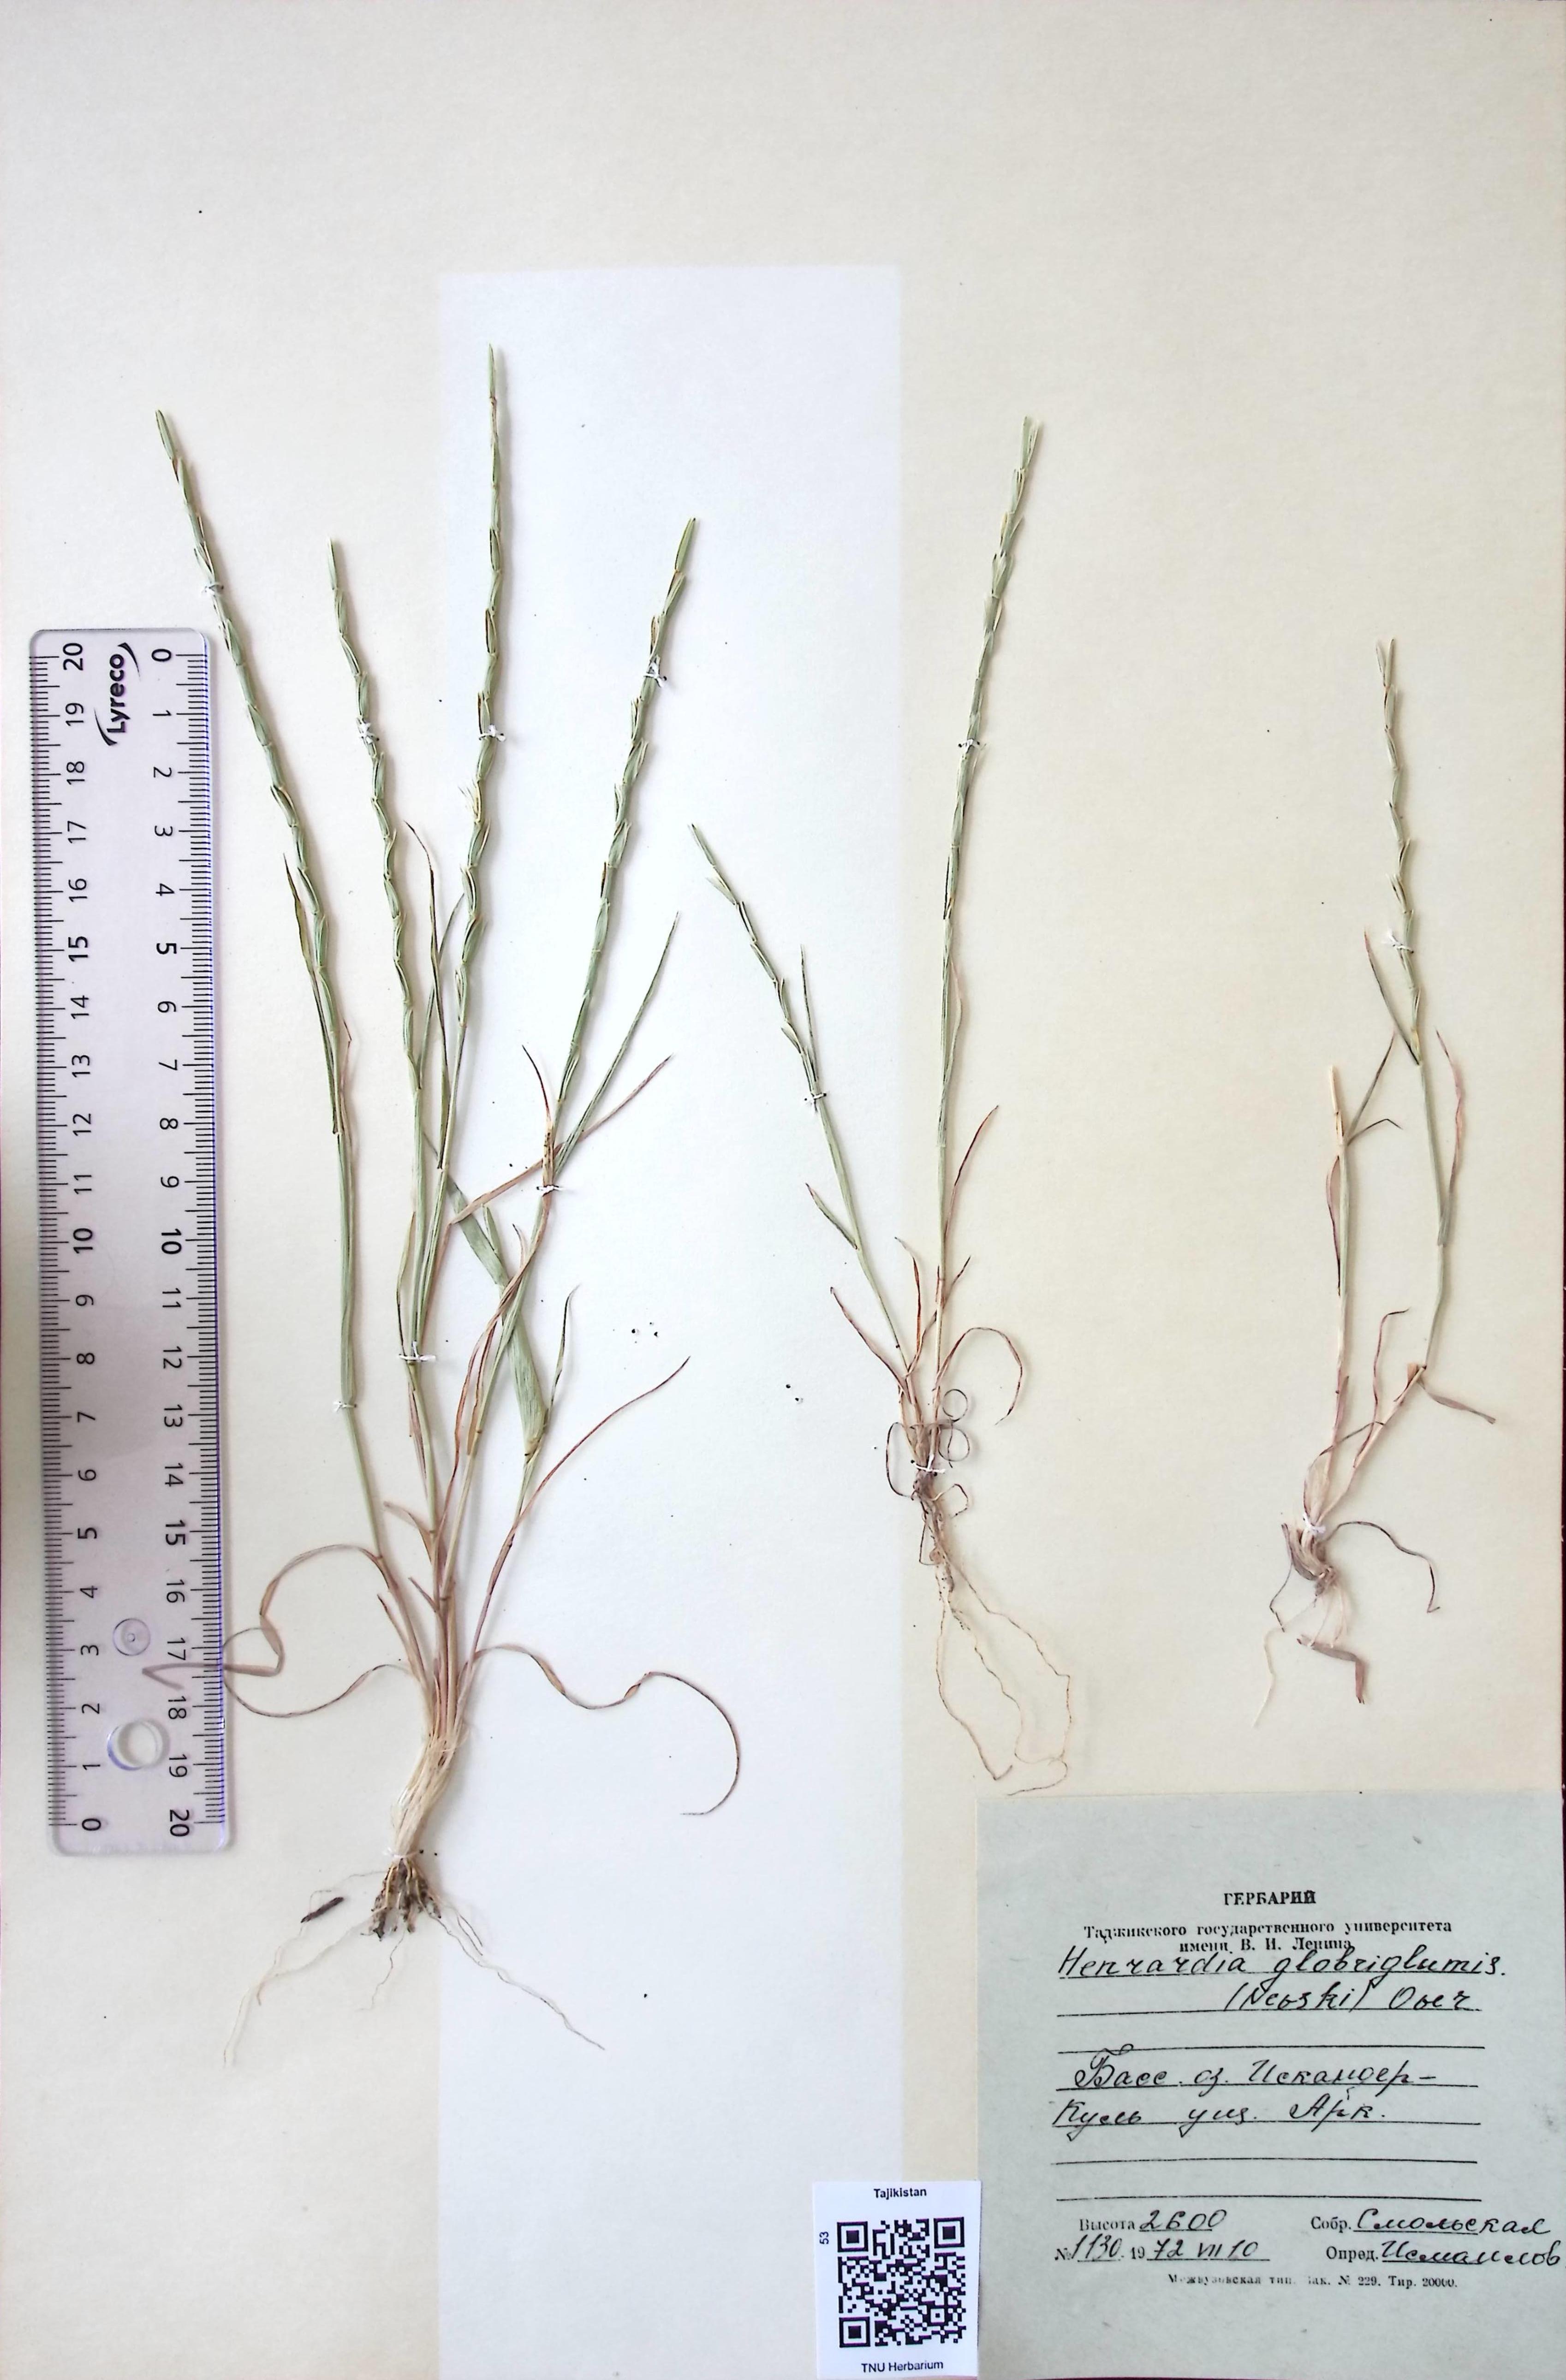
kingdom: Plantae
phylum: Tracheophyta
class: Liliopsida
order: Poales
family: Poaceae
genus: Henrardia
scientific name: Henrardia persica
